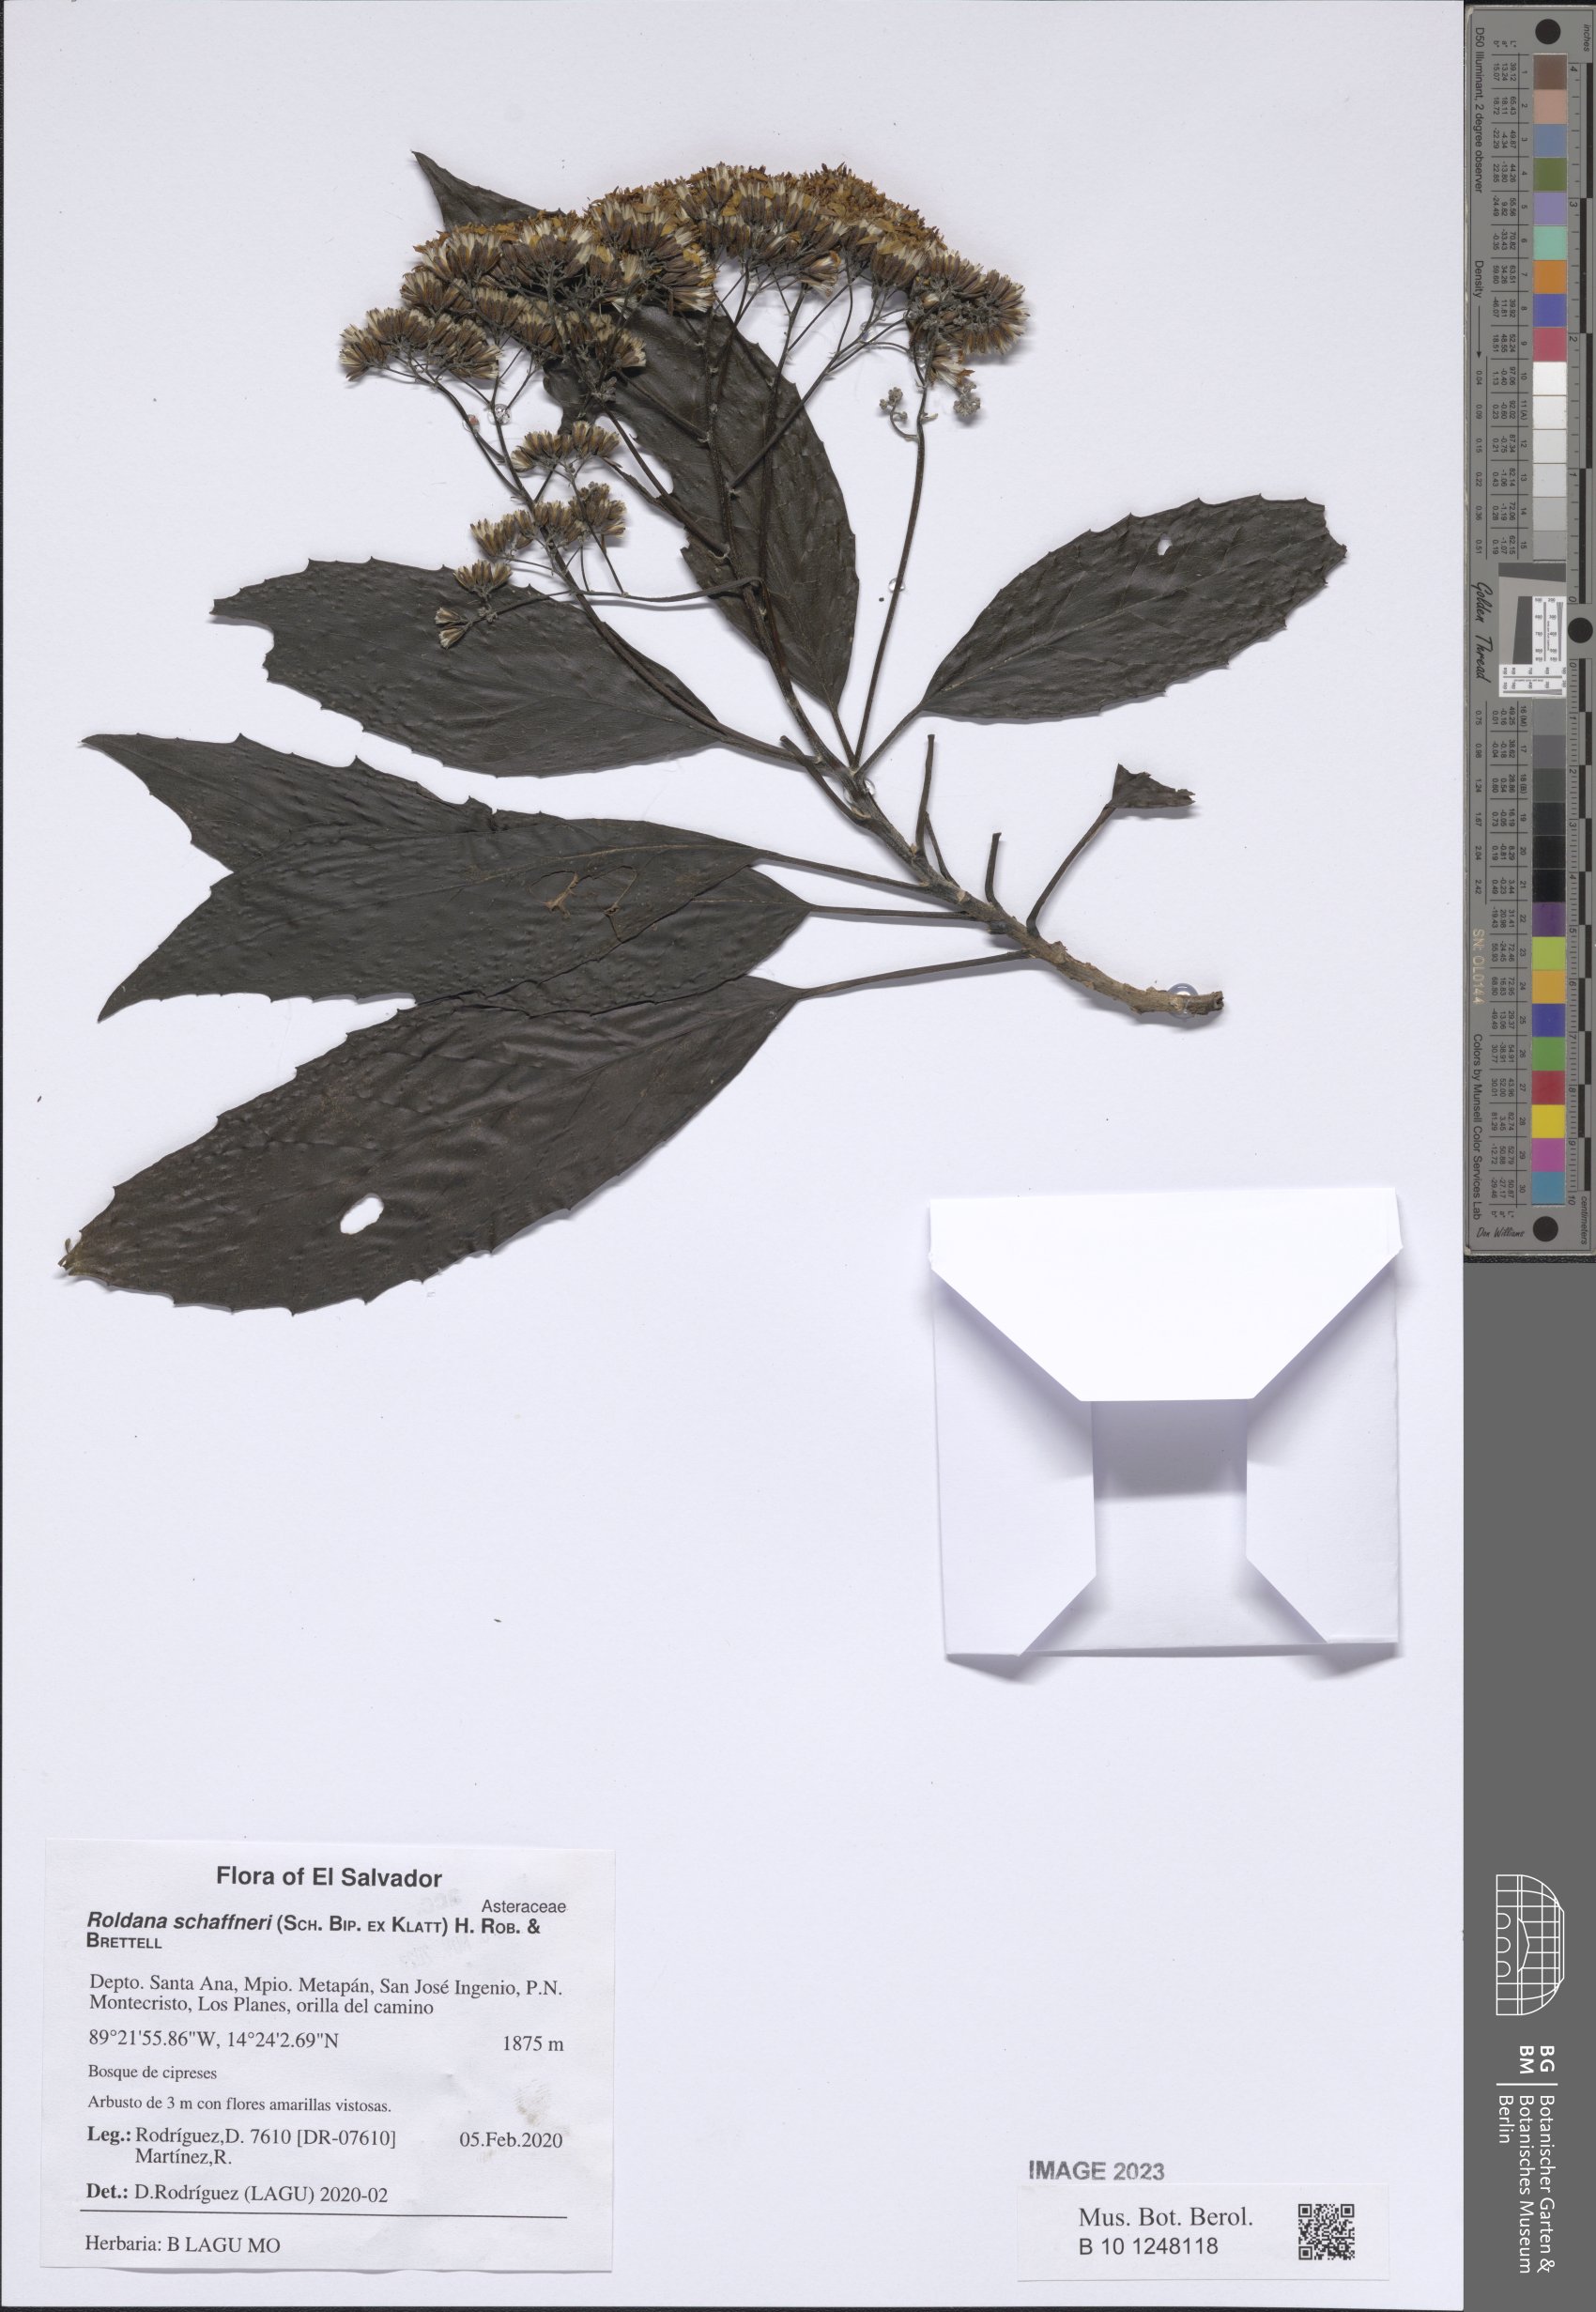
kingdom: Plantae
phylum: Tracheophyta
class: Magnoliopsida
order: Asterales
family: Asteraceae
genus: Roldana
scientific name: Roldana schaffneri
